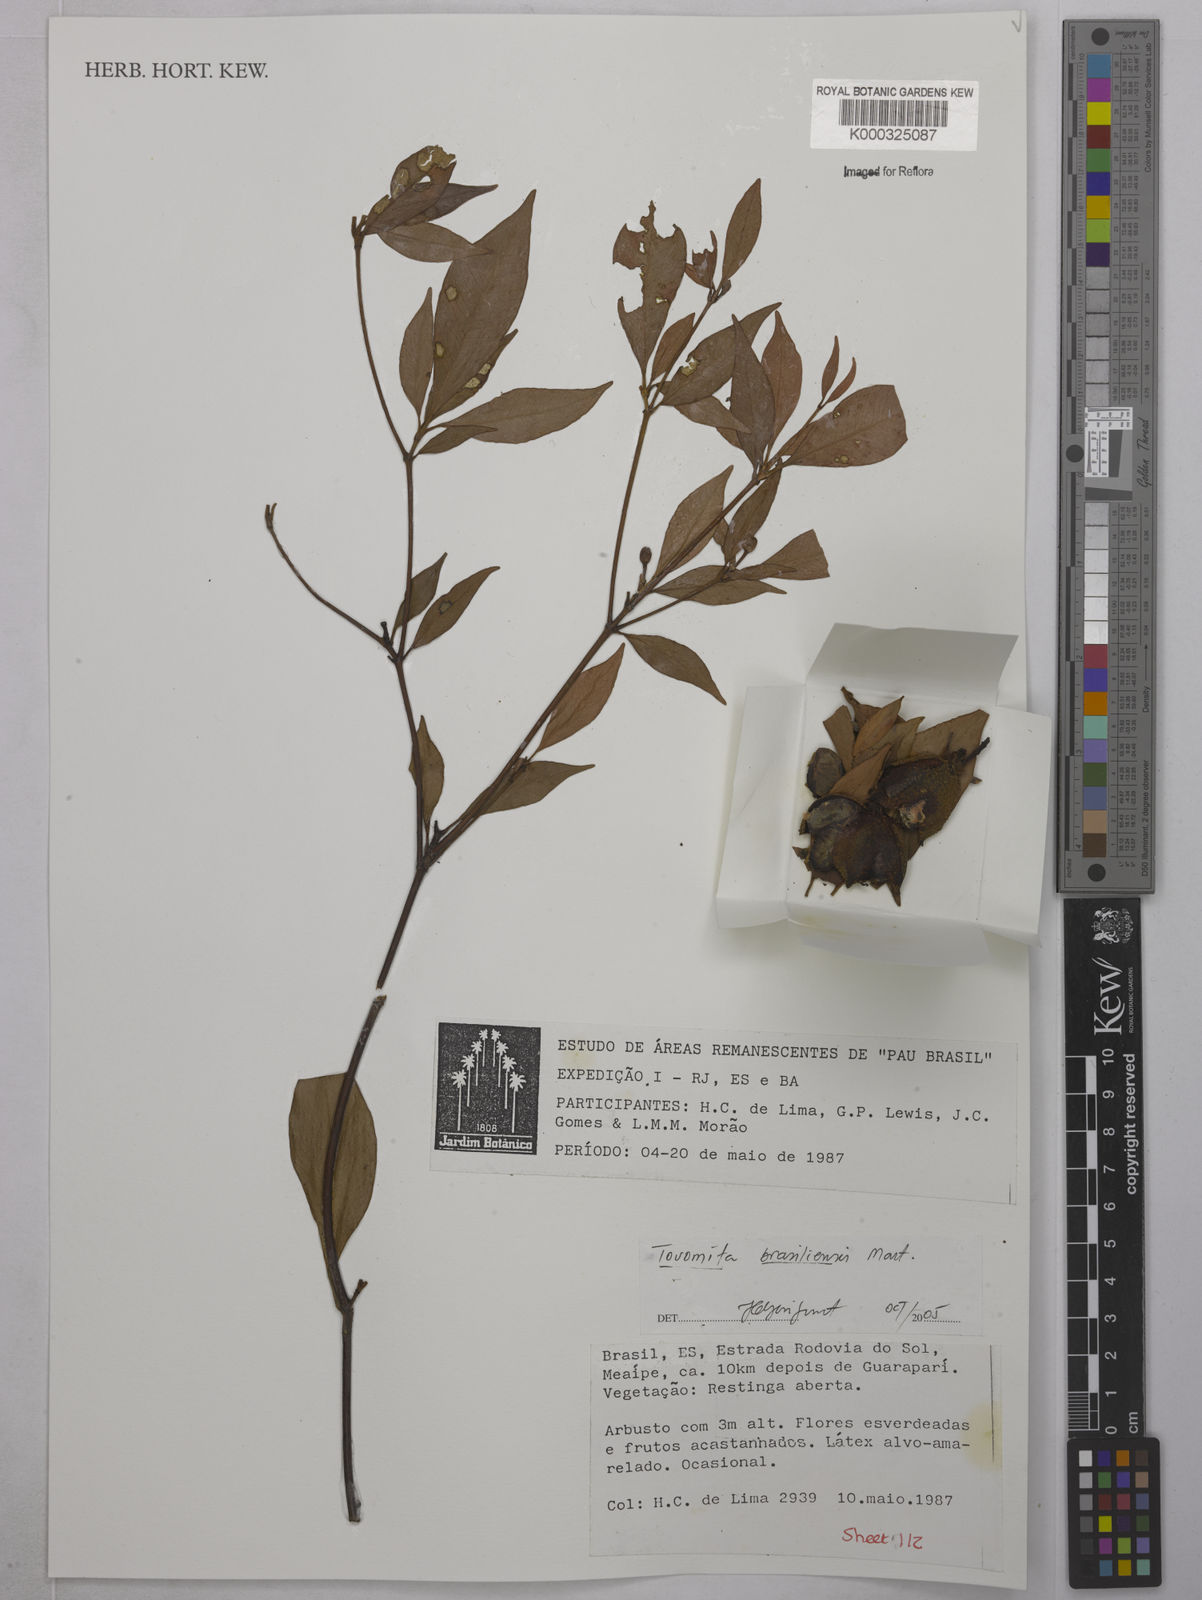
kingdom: Plantae
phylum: Tracheophyta
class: Magnoliopsida
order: Malpighiales
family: Clusiaceae
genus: Tovomita
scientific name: Tovomita
